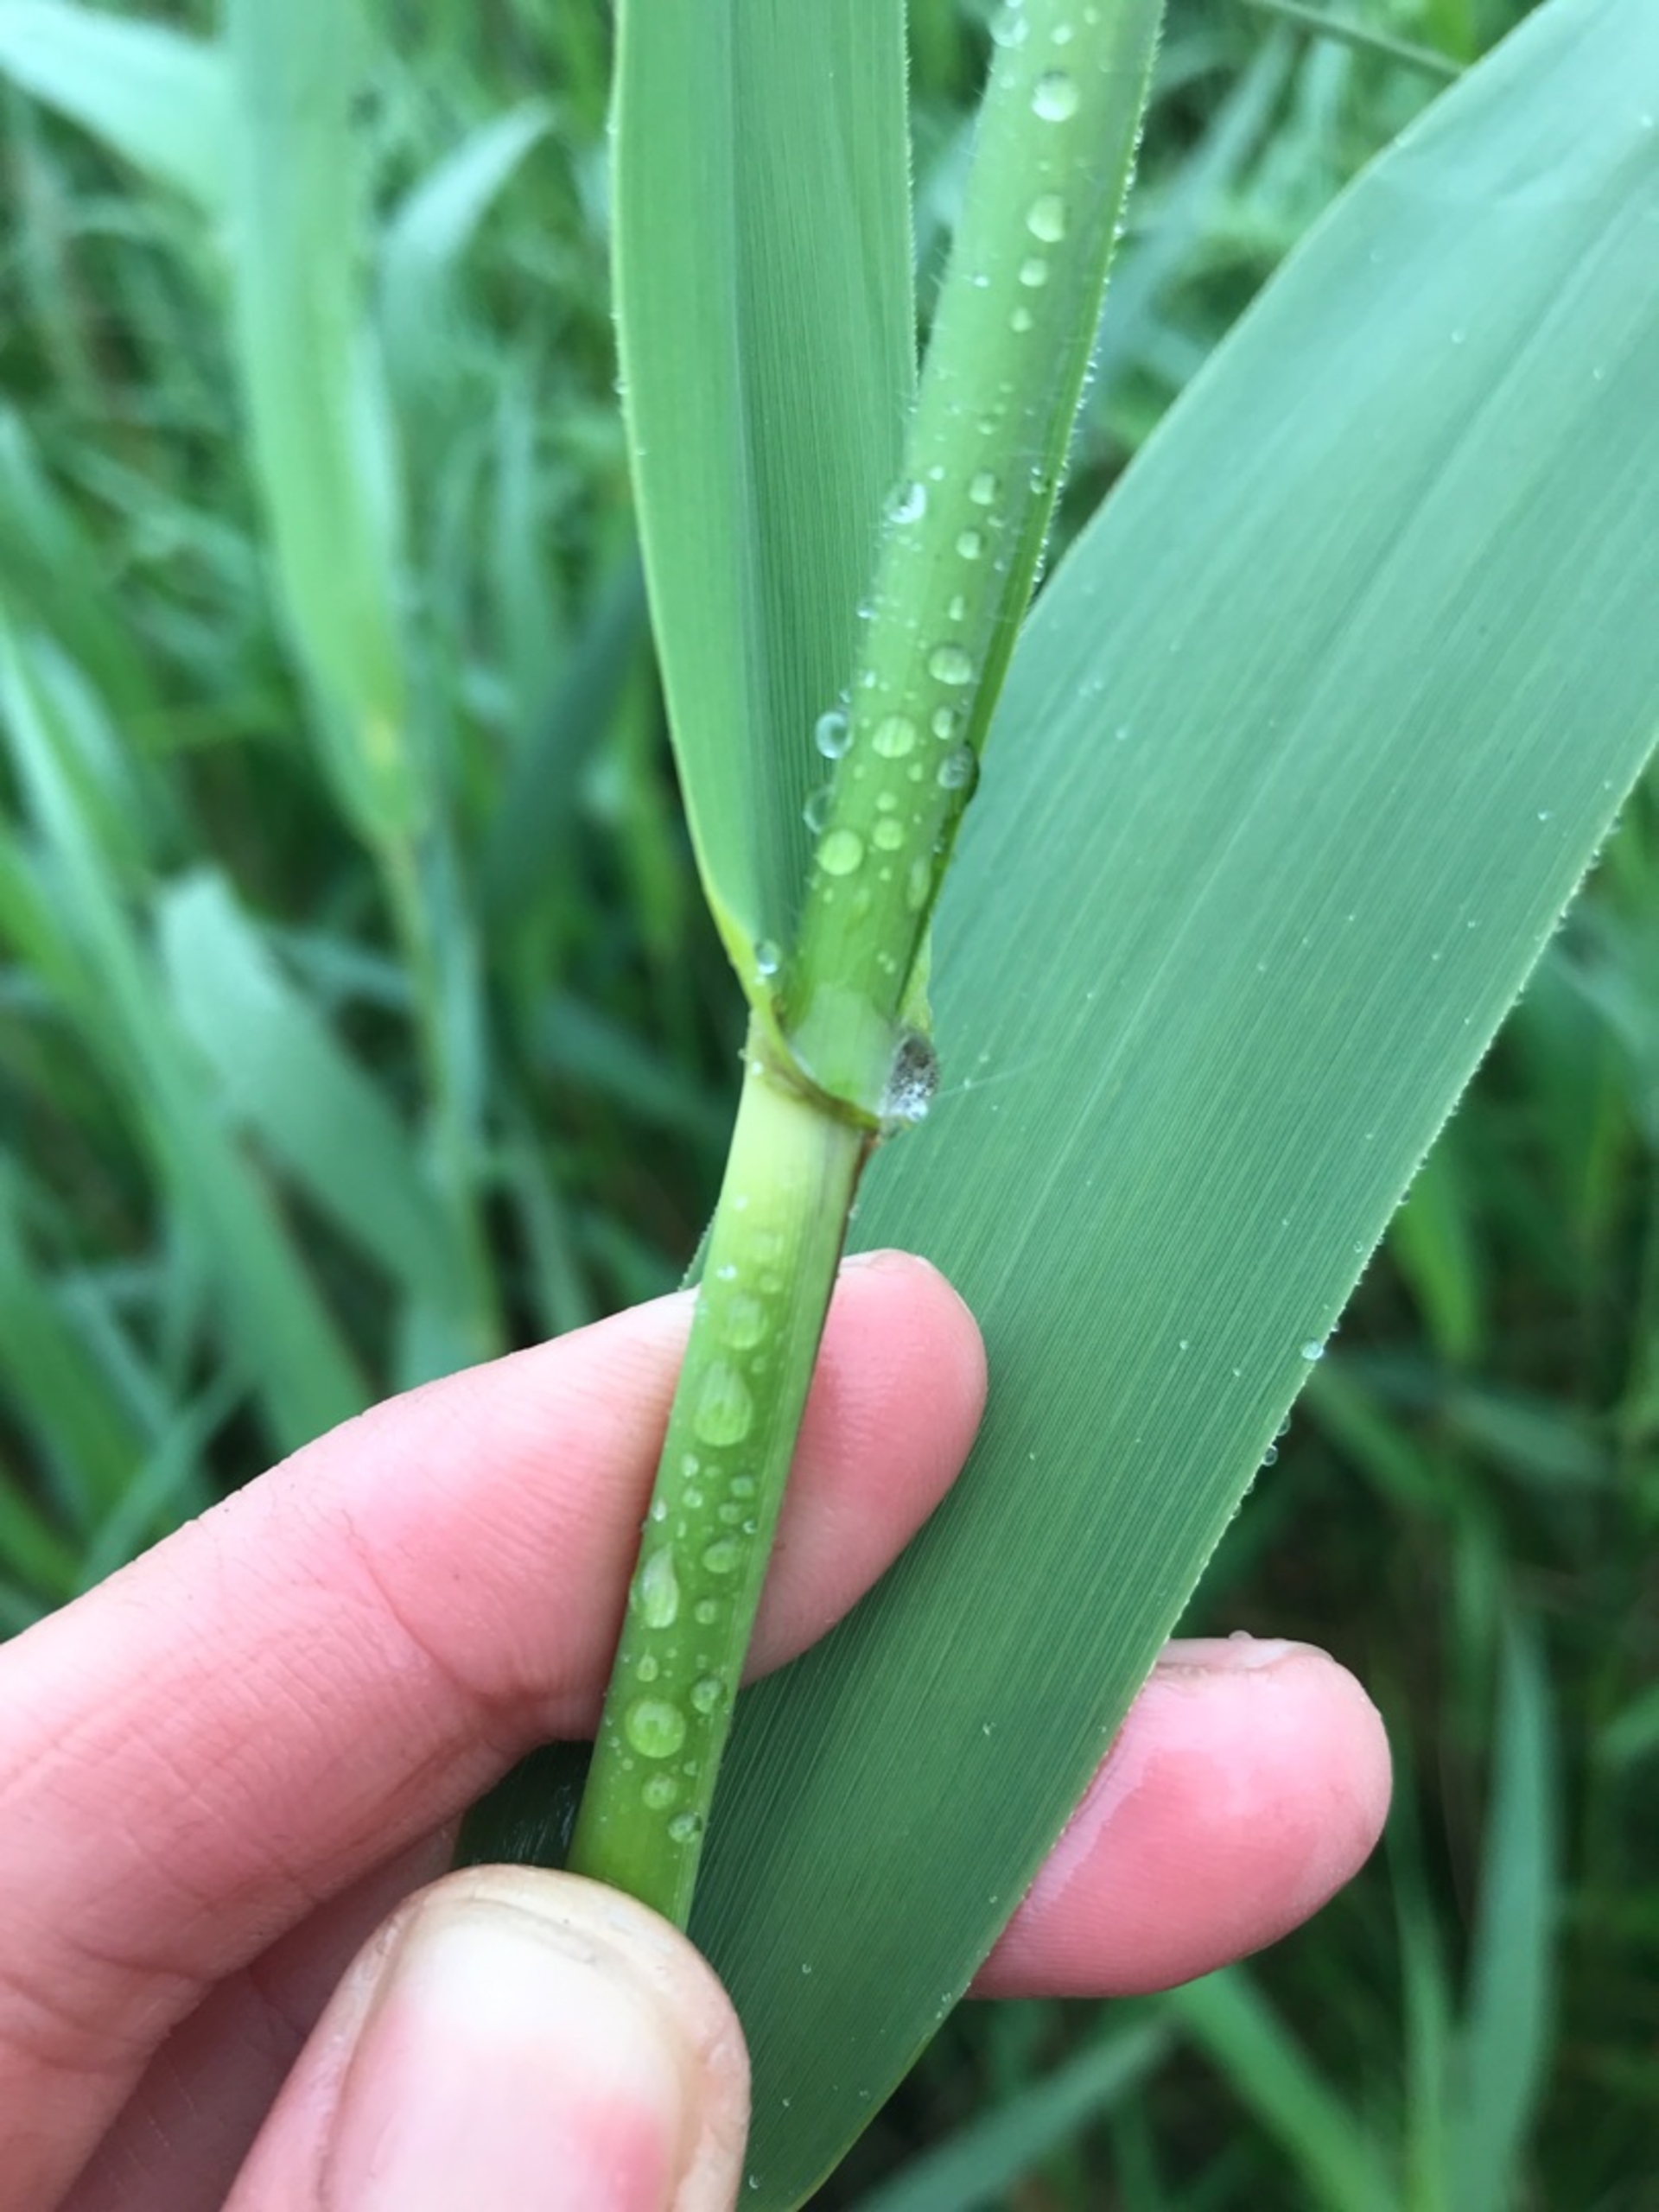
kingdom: Plantae
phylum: Tracheophyta
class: Liliopsida
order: Poales
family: Poaceae
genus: Phragmites
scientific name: Phragmites australis
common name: Tagrør
